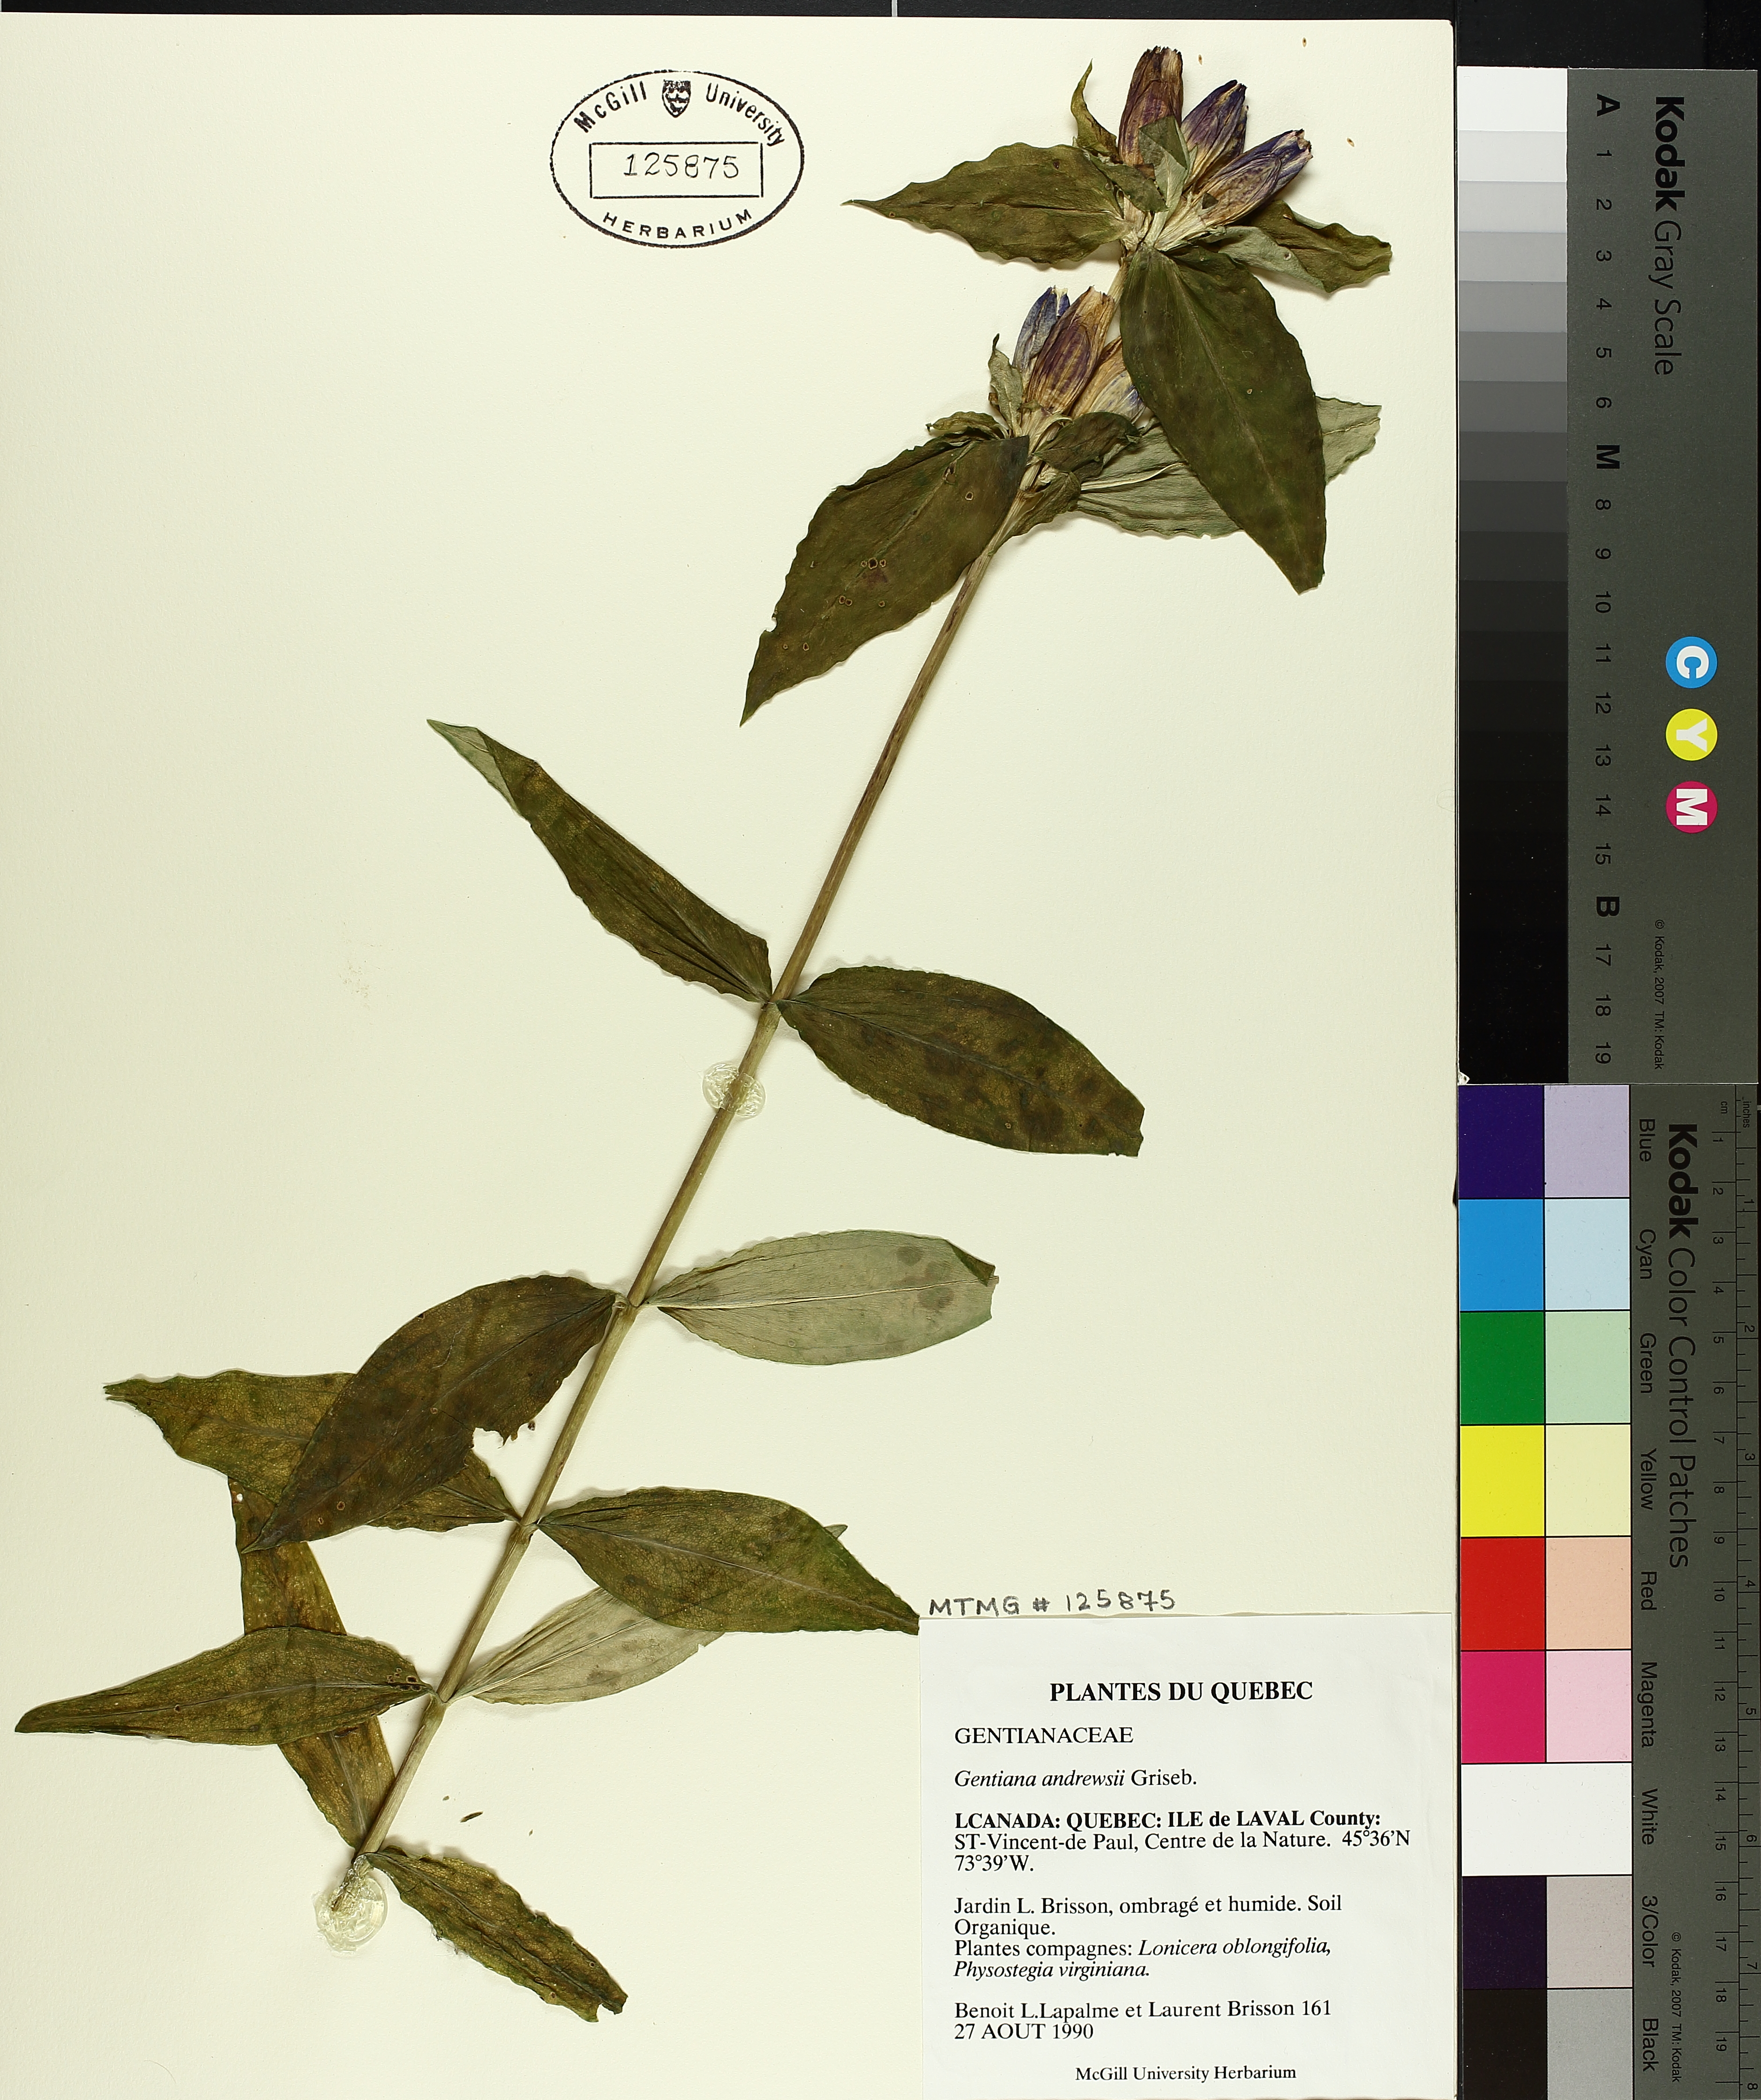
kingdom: Plantae
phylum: Tracheophyta
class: Magnoliopsida
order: Gentianales
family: Gentianaceae
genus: Gentiana
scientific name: Gentiana andrewsii
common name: Bottle gentian
